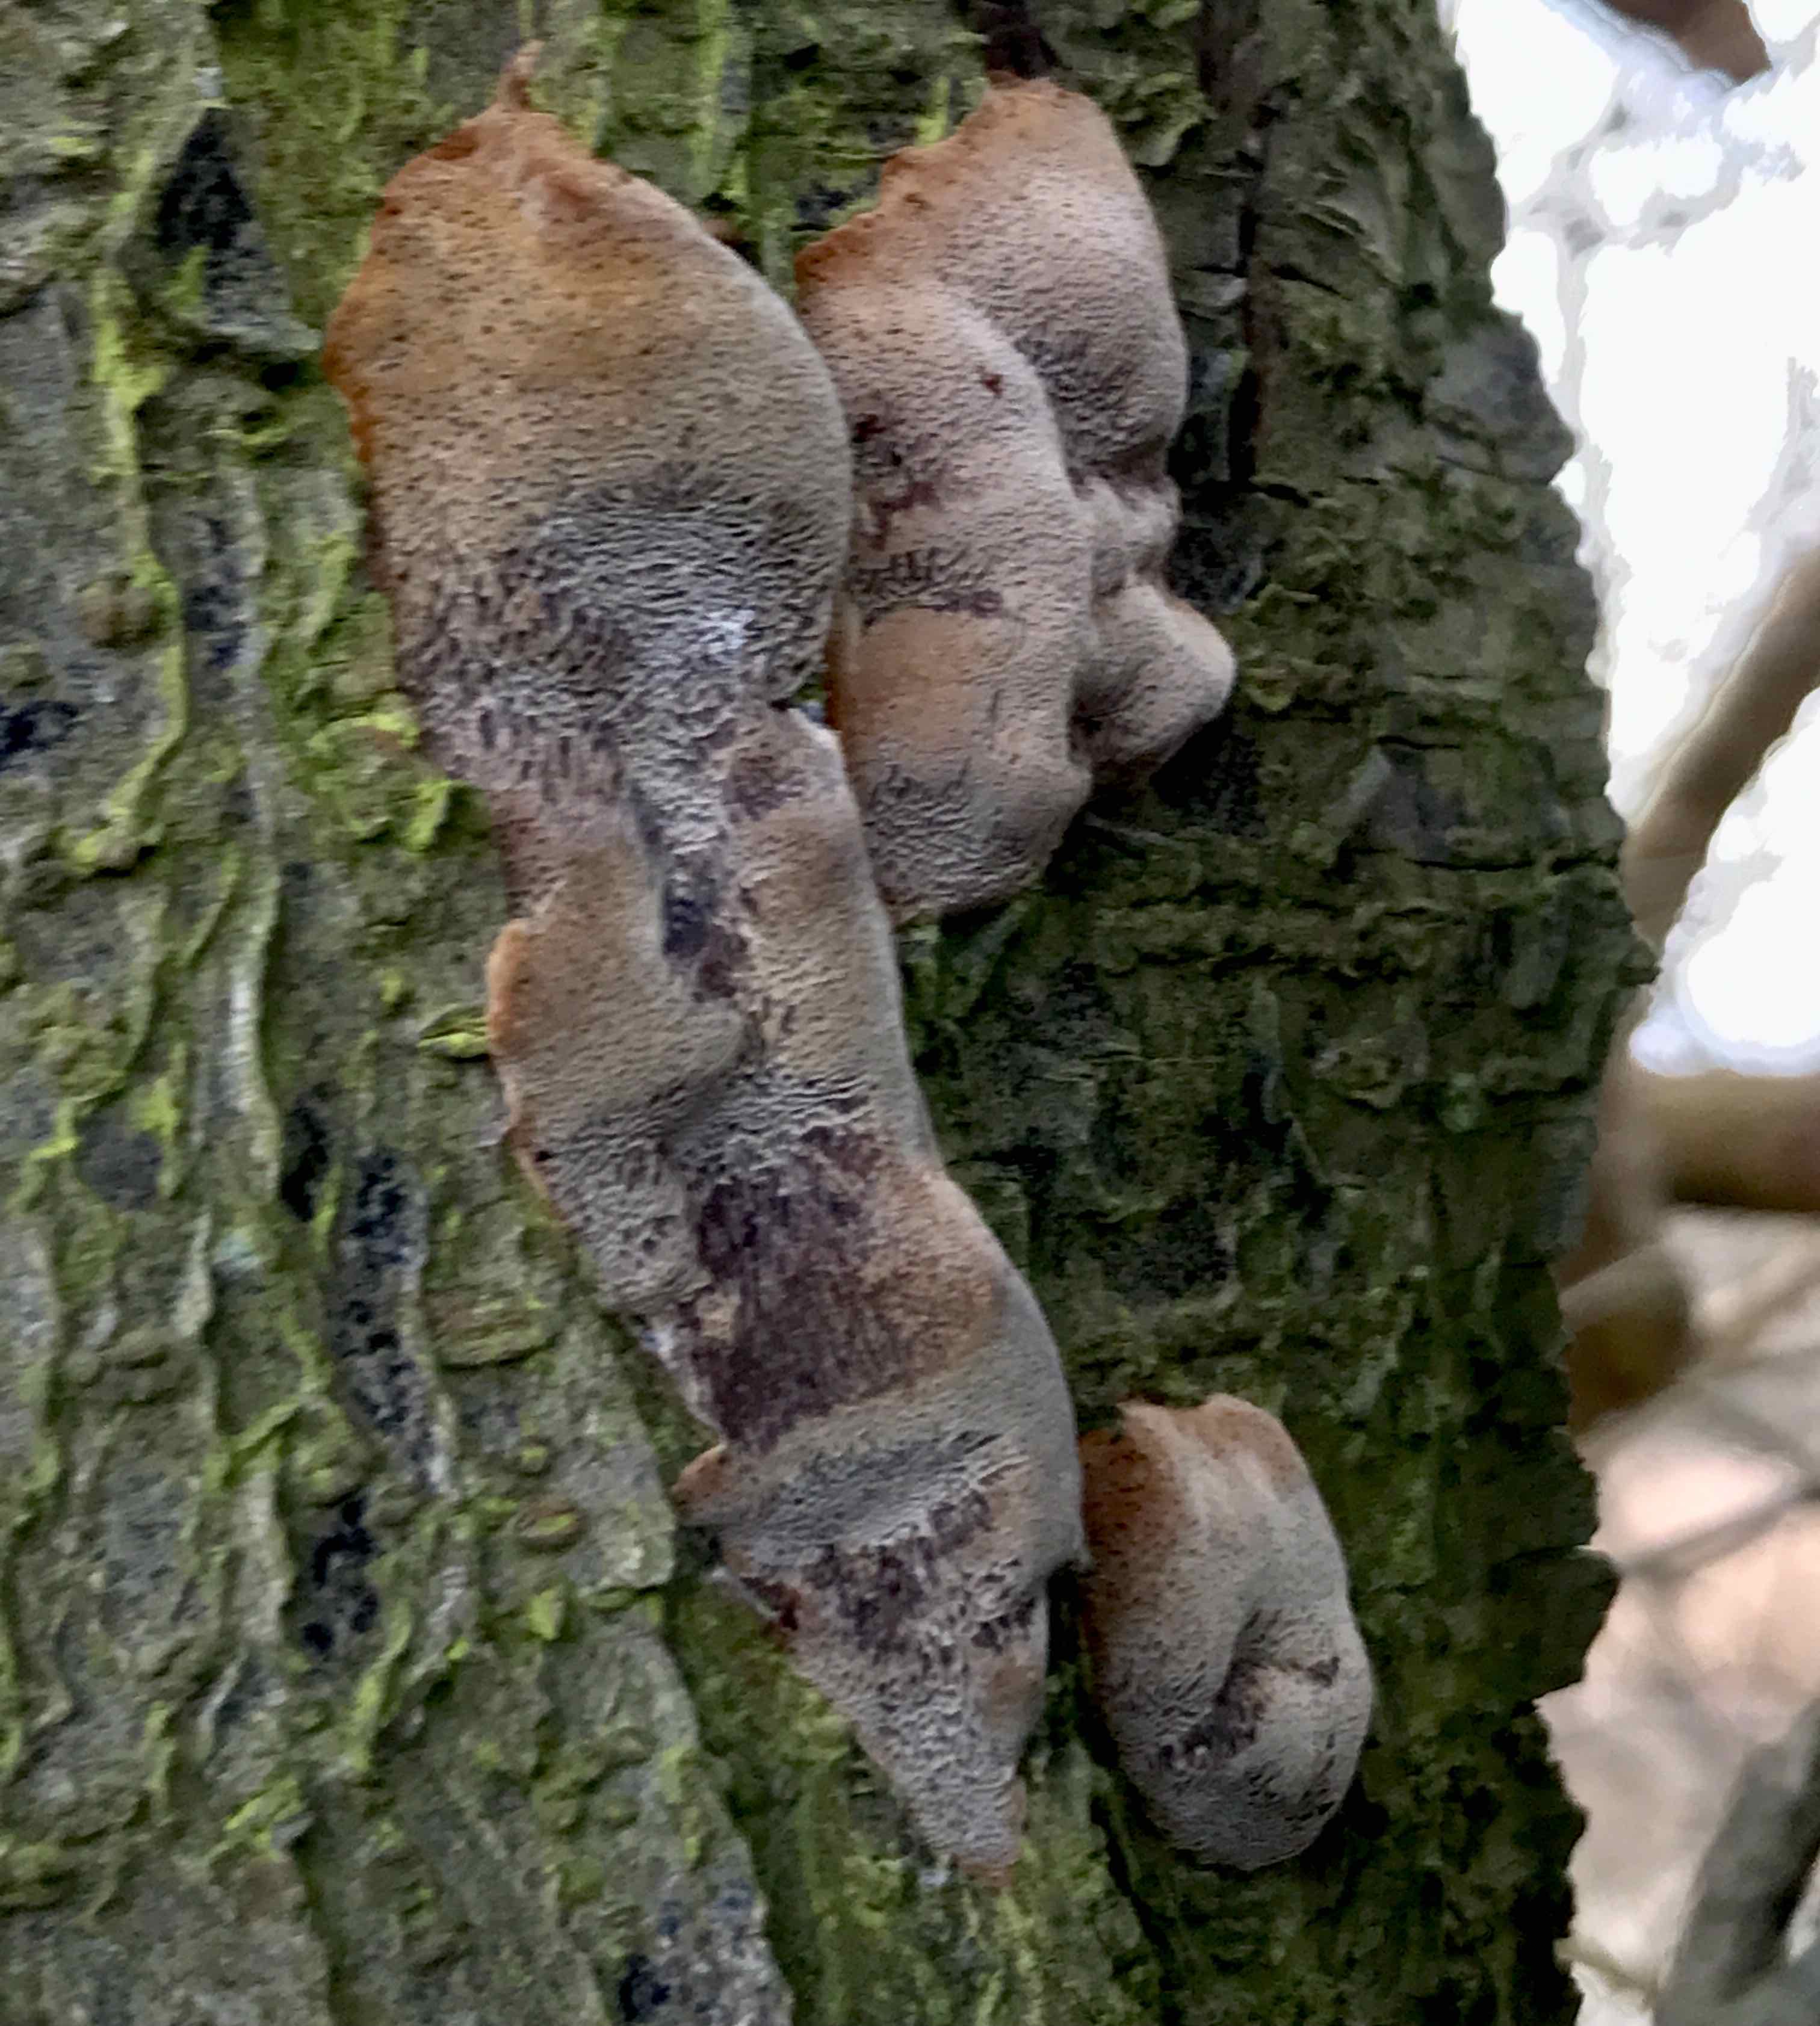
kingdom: Fungi
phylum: Basidiomycota
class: Agaricomycetes
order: Hymenochaetales
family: Hymenochaetaceae
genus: Phellinus
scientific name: Phellinus pomaceus
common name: blomme-ildporesvamp
